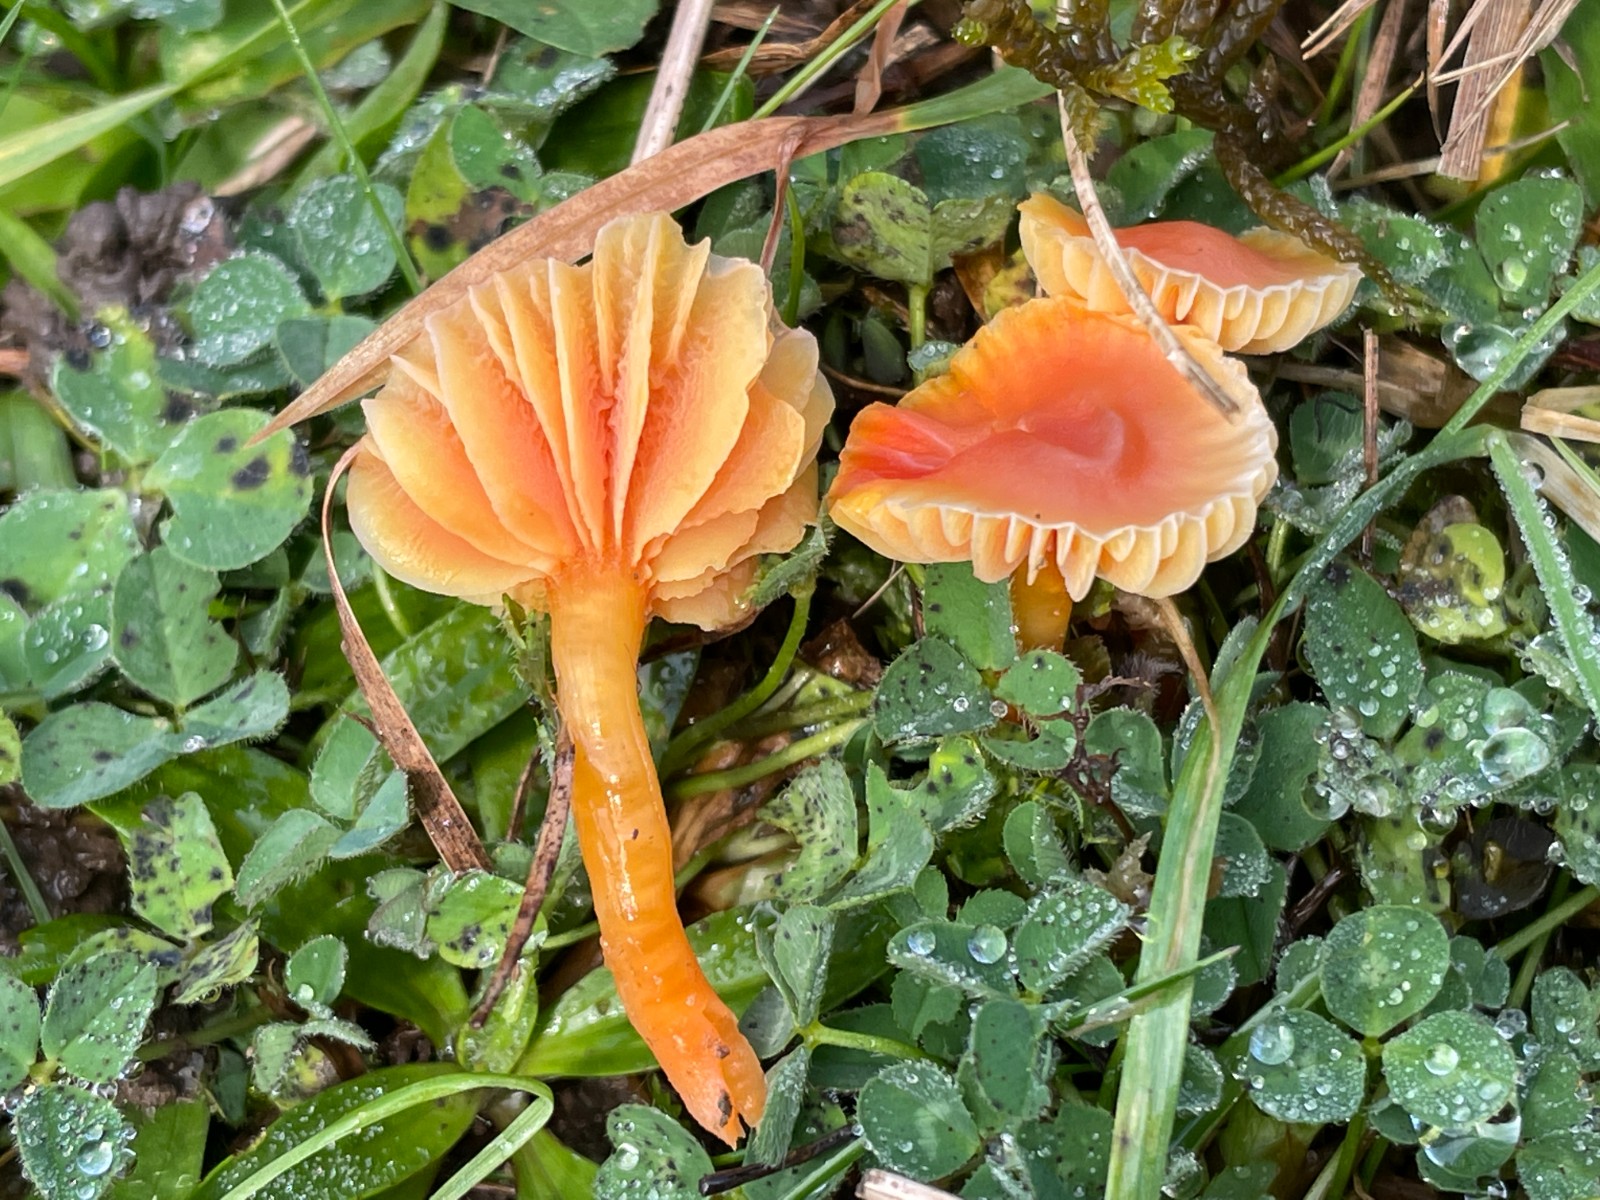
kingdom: Fungi
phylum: Basidiomycota
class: Agaricomycetes
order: Agaricales
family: Hygrophoraceae
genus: Hygrocybe
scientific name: Hygrocybe mucronella
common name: bitter vokshat
